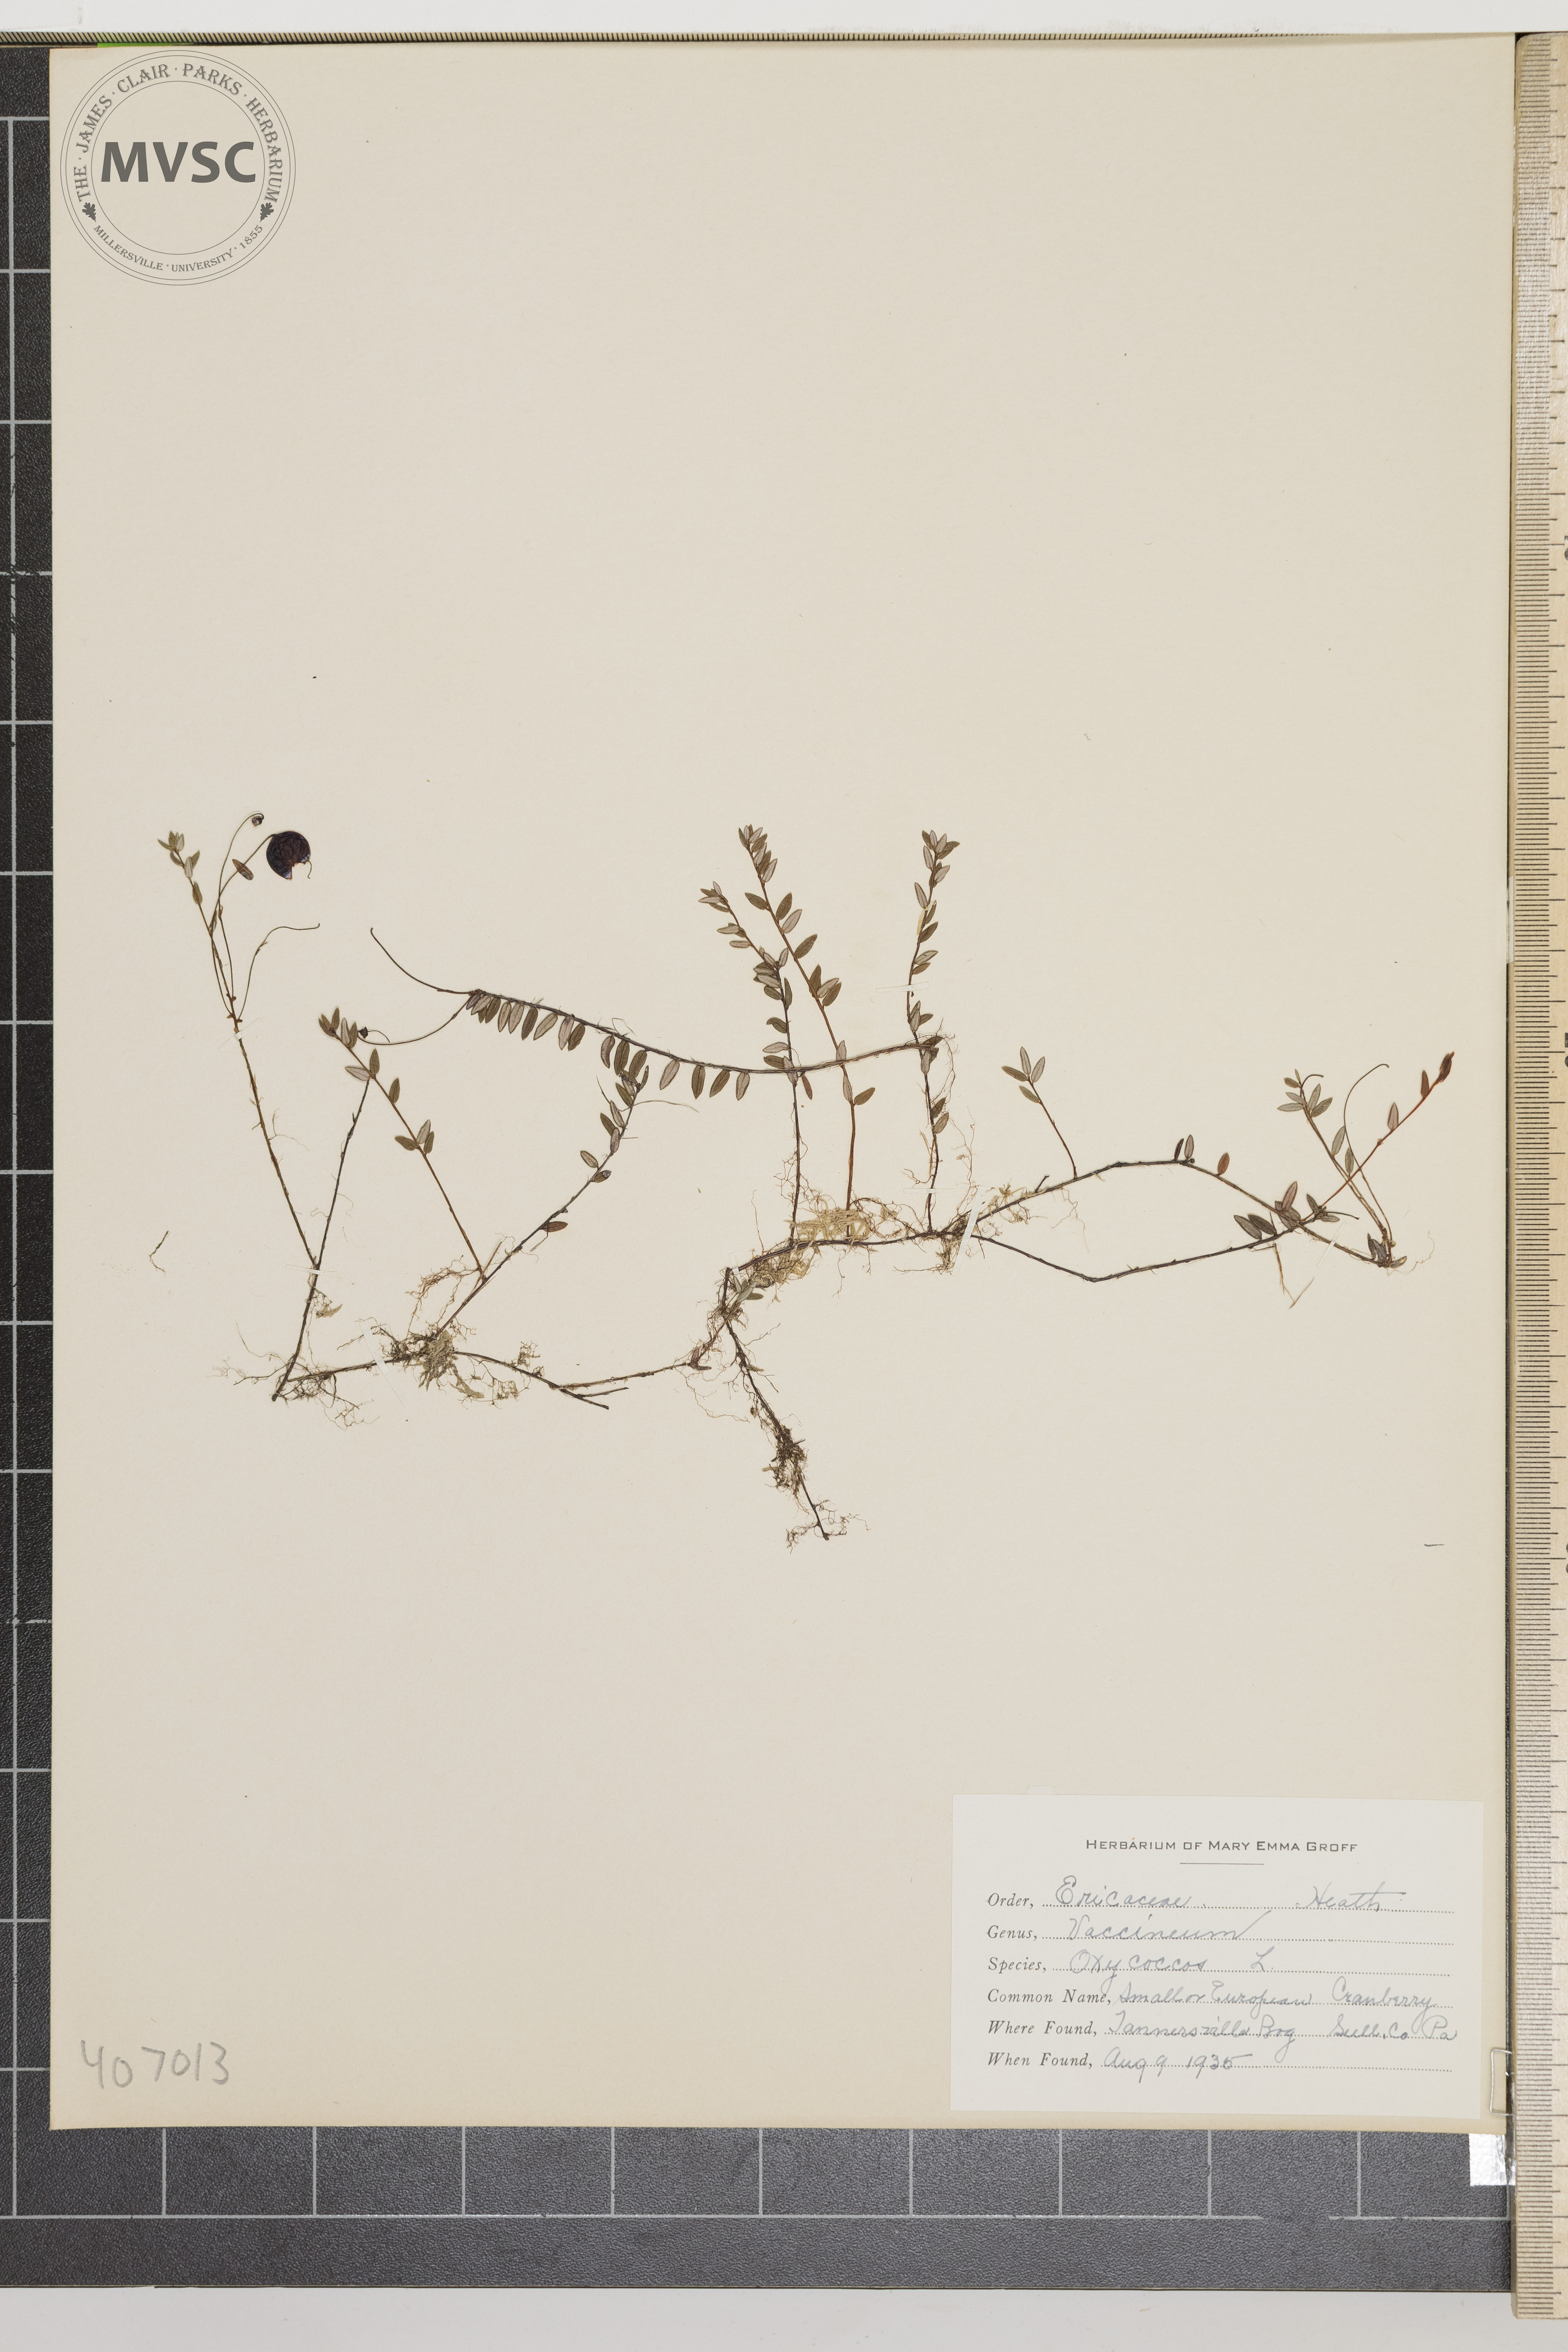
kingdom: Plantae
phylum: Tracheophyta
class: Magnoliopsida
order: Ericales
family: Ericaceae
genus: Vaccinium
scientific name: Vaccinium oxycoccos
